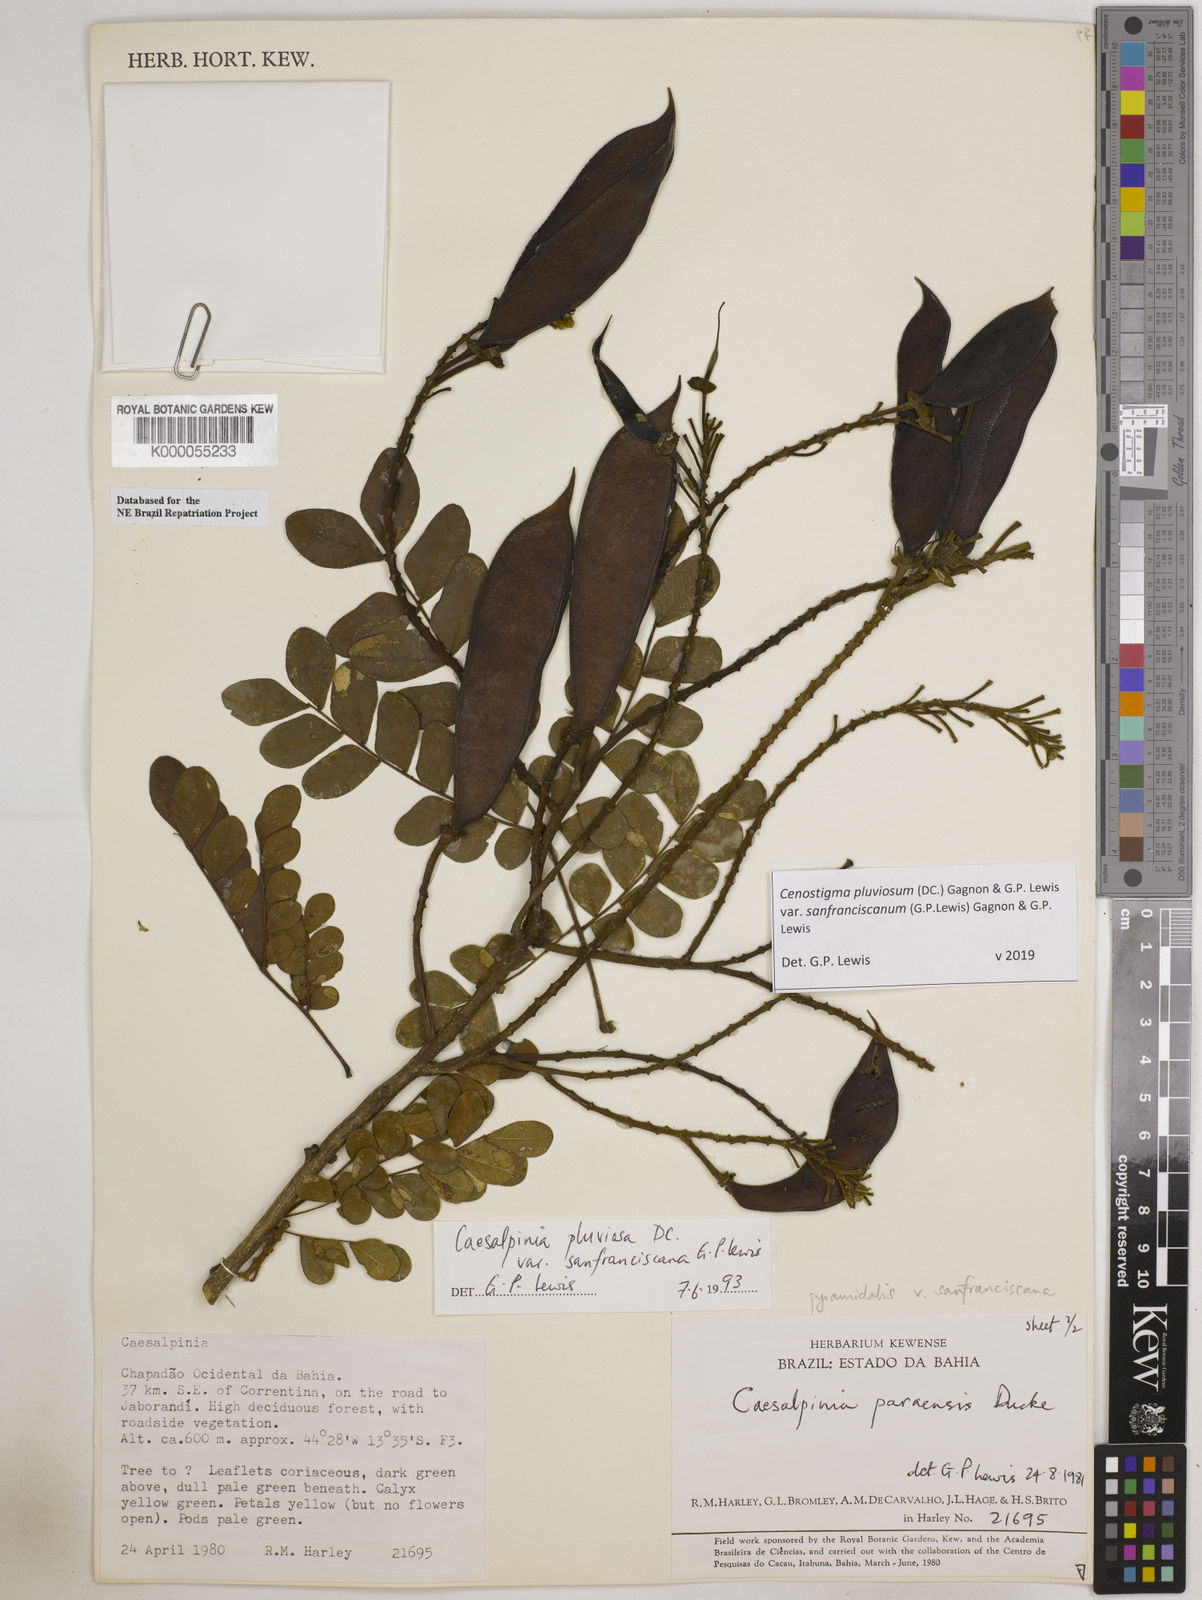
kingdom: Plantae
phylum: Tracheophyta
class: Magnoliopsida
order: Fabales
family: Fabaceae
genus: Cenostigma
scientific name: Cenostigma pluviosum
